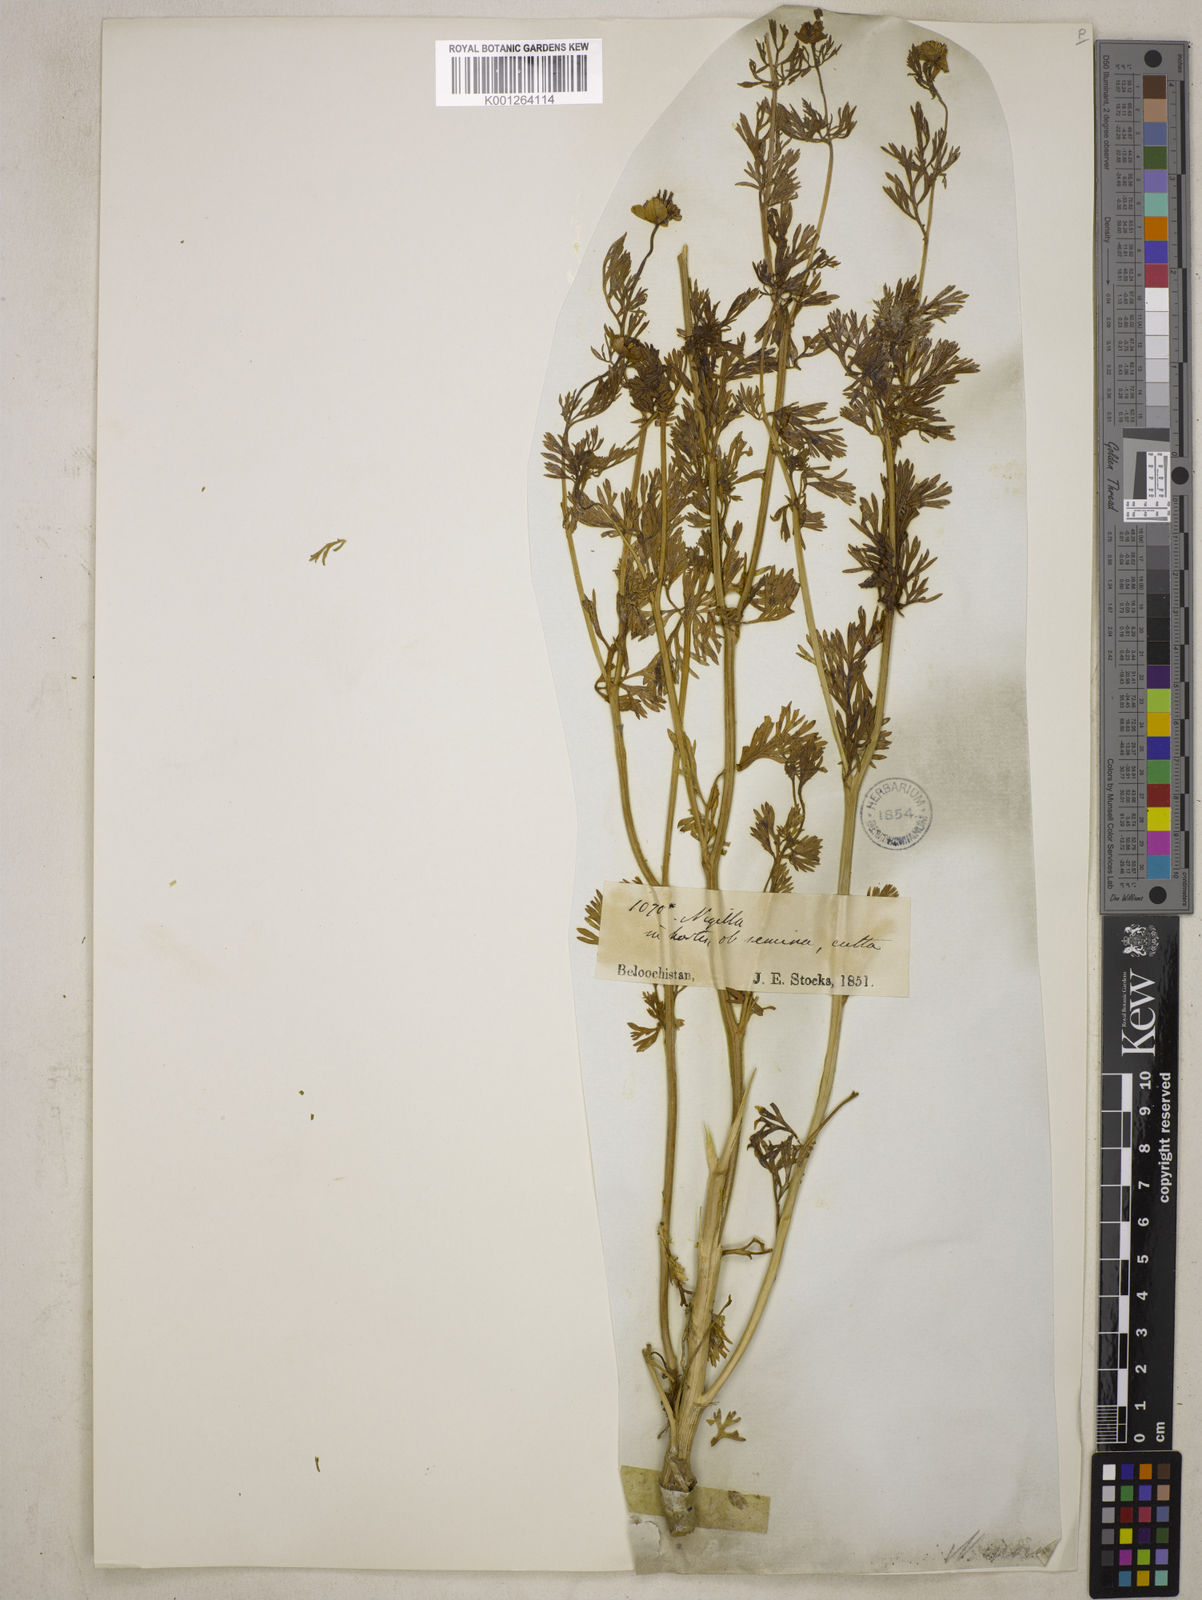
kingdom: Plantae
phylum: Tracheophyta
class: Magnoliopsida
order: Ranunculales
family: Ranunculaceae
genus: Nigella
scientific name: Nigella sativa
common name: Black-cumin
